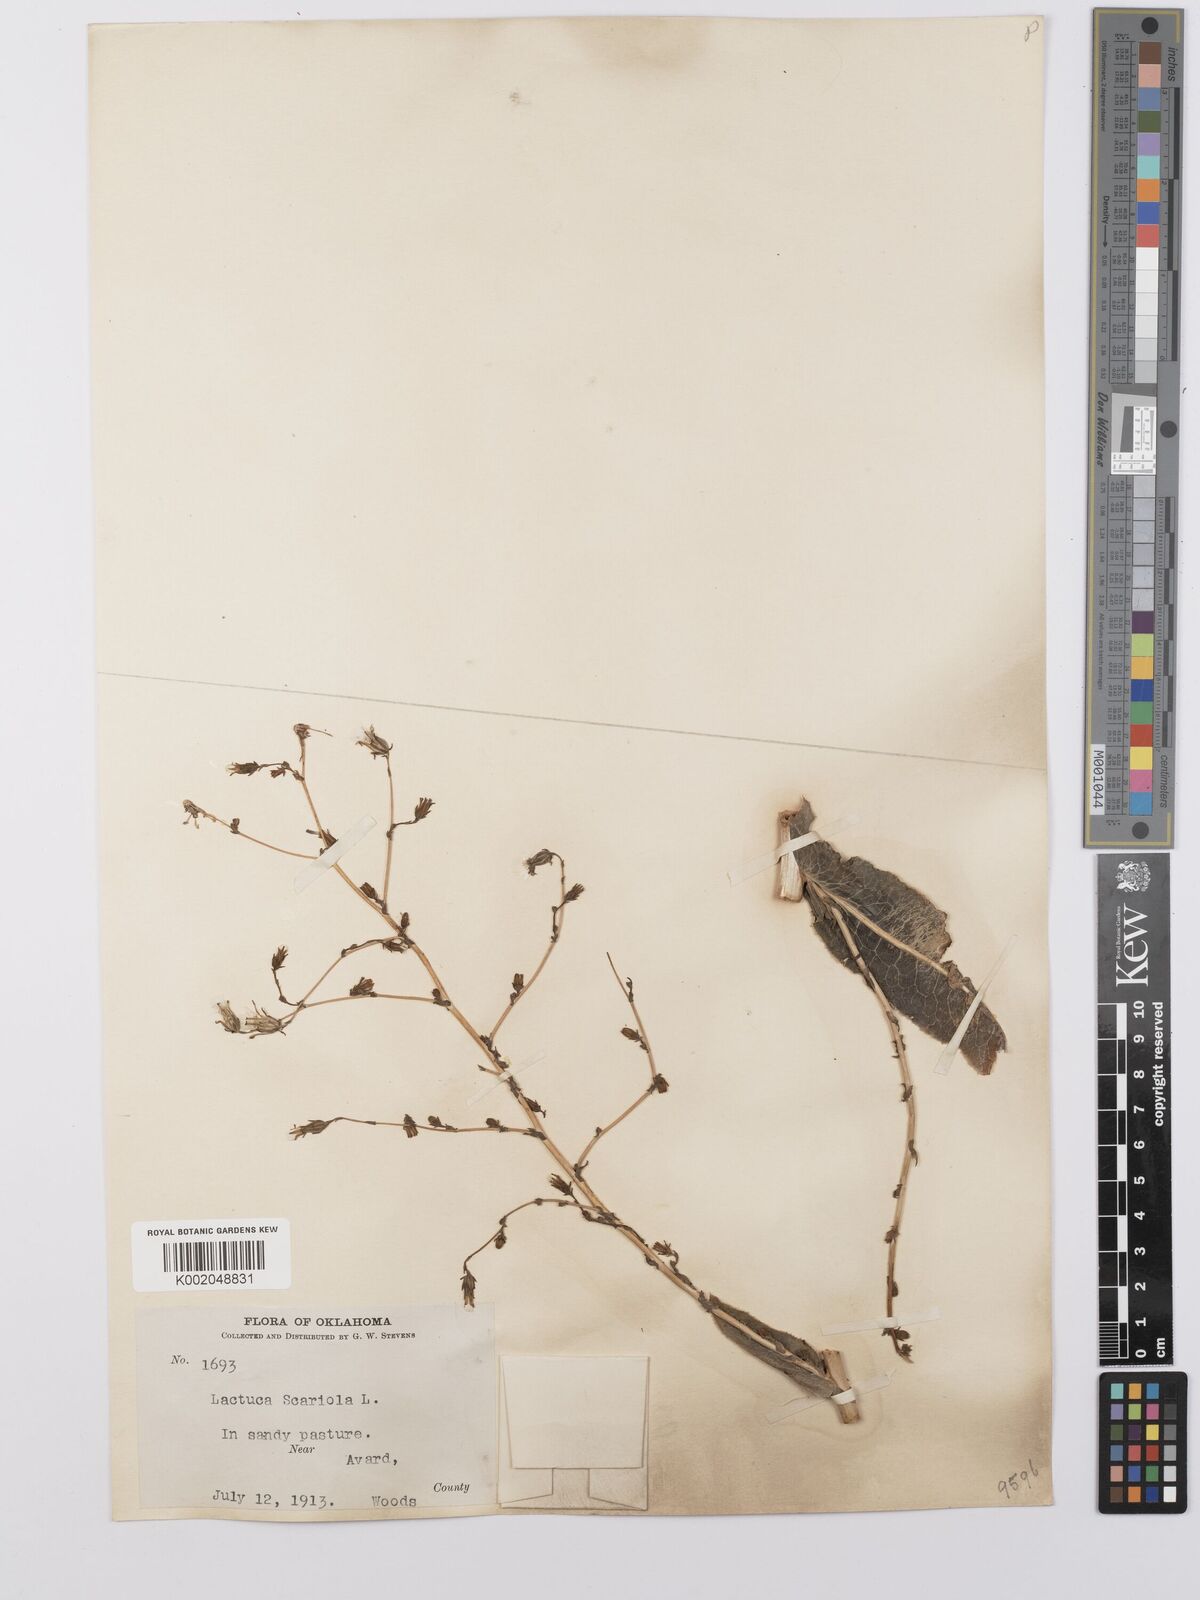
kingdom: Plantae
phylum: Tracheophyta
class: Magnoliopsida
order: Asterales
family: Asteraceae
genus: Lactuca
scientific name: Lactuca serriola
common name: Prickly lettuce
